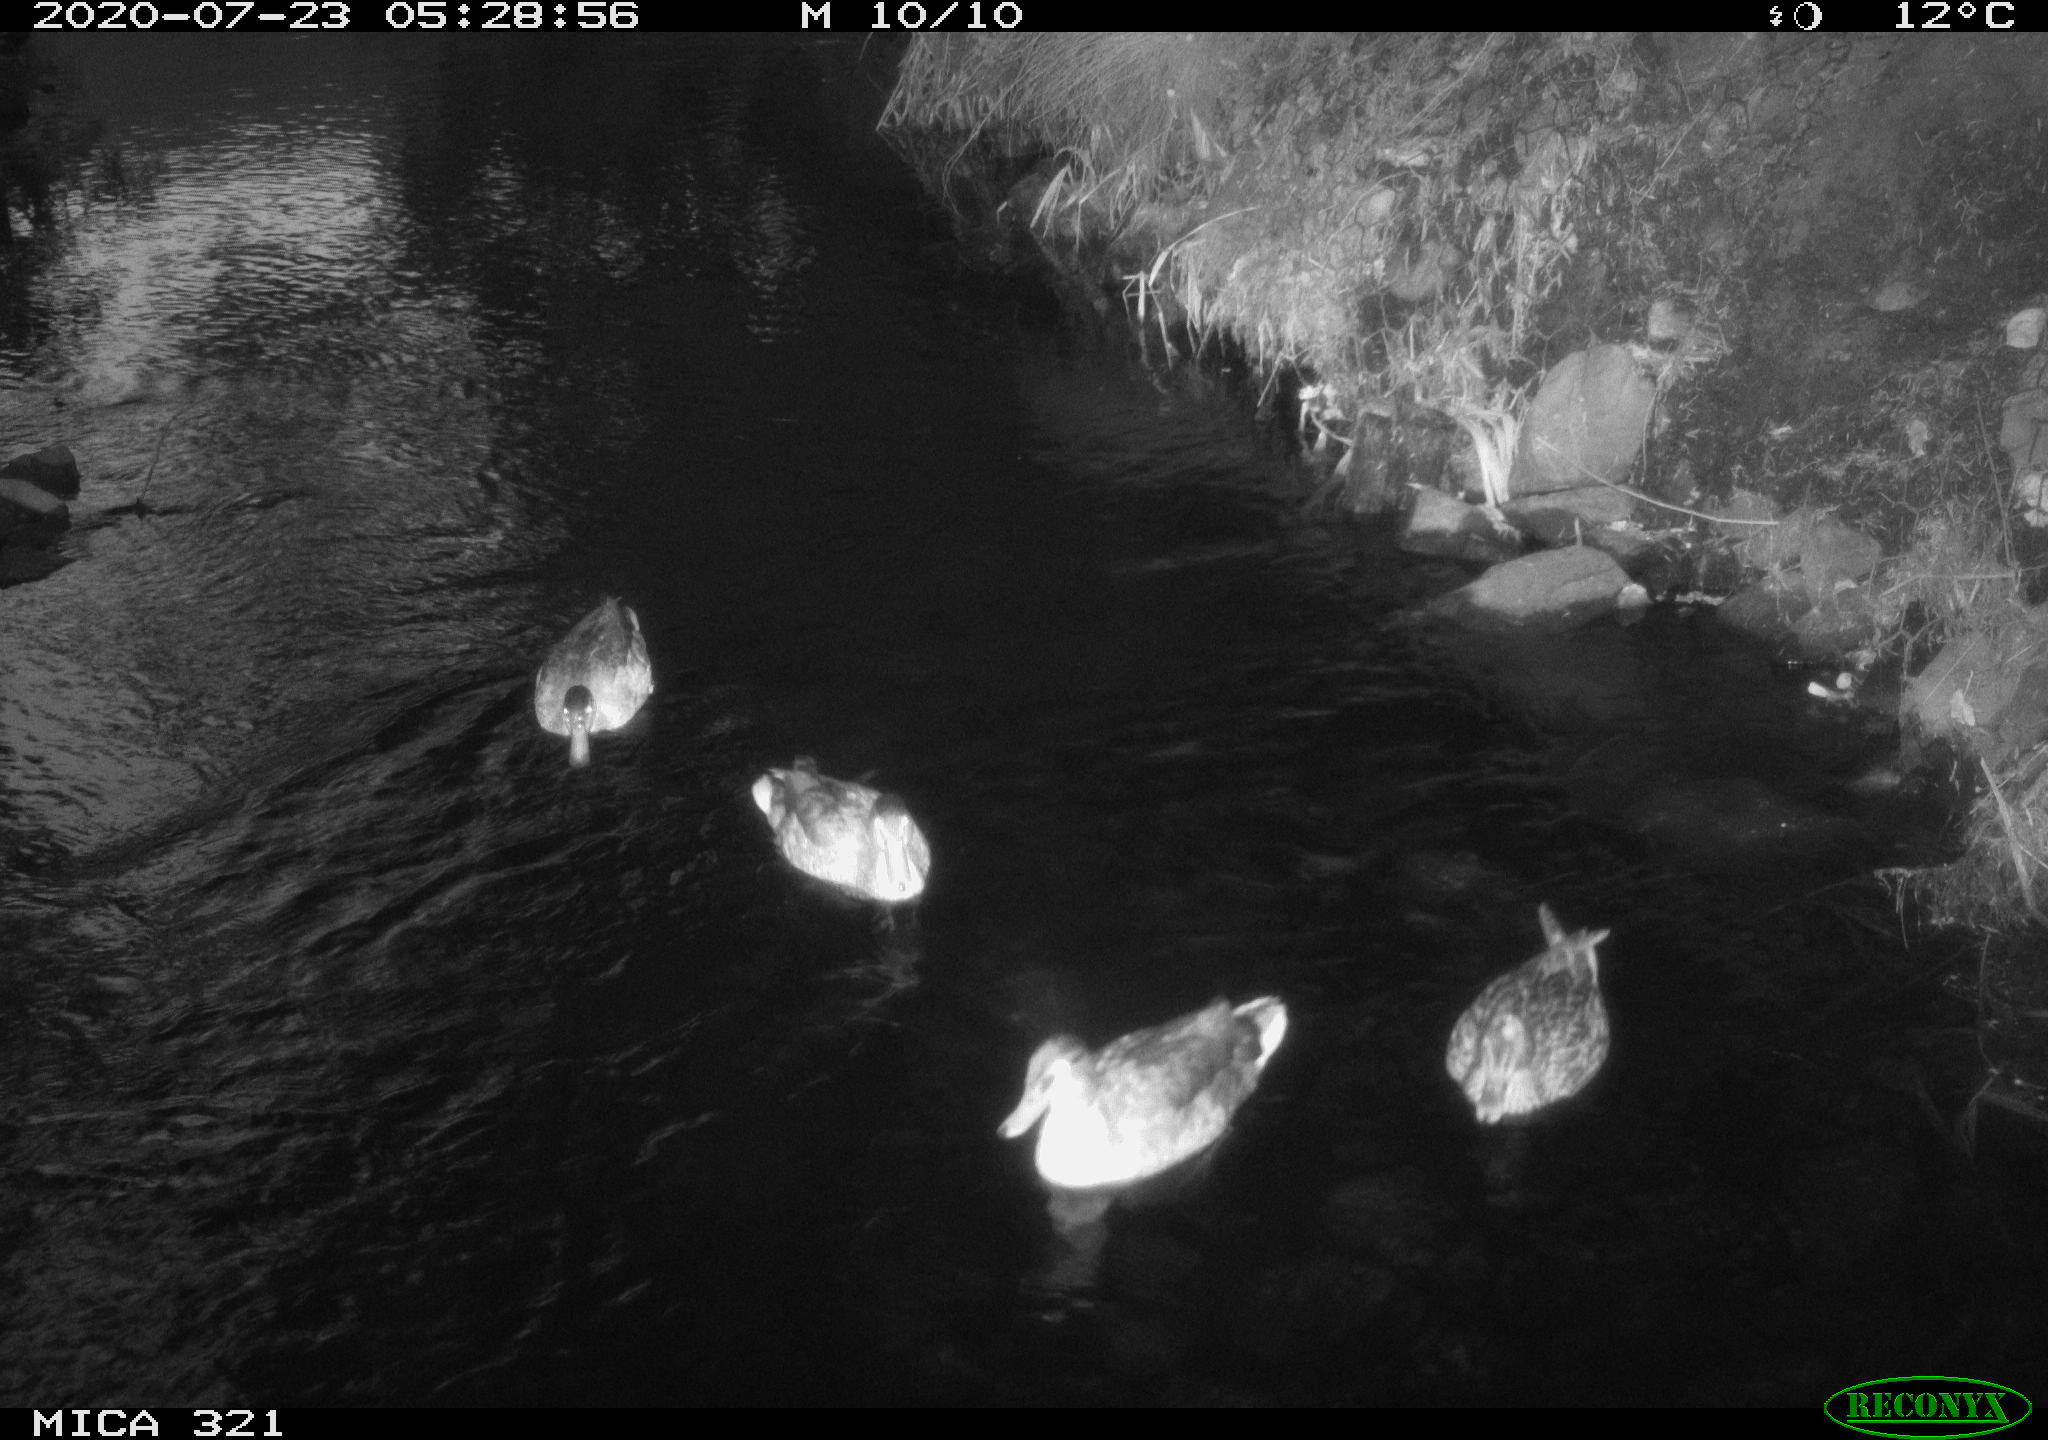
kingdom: Animalia
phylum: Chordata
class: Aves
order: Anseriformes
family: Anatidae
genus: Anas
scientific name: Anas platyrhynchos
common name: Mallard
